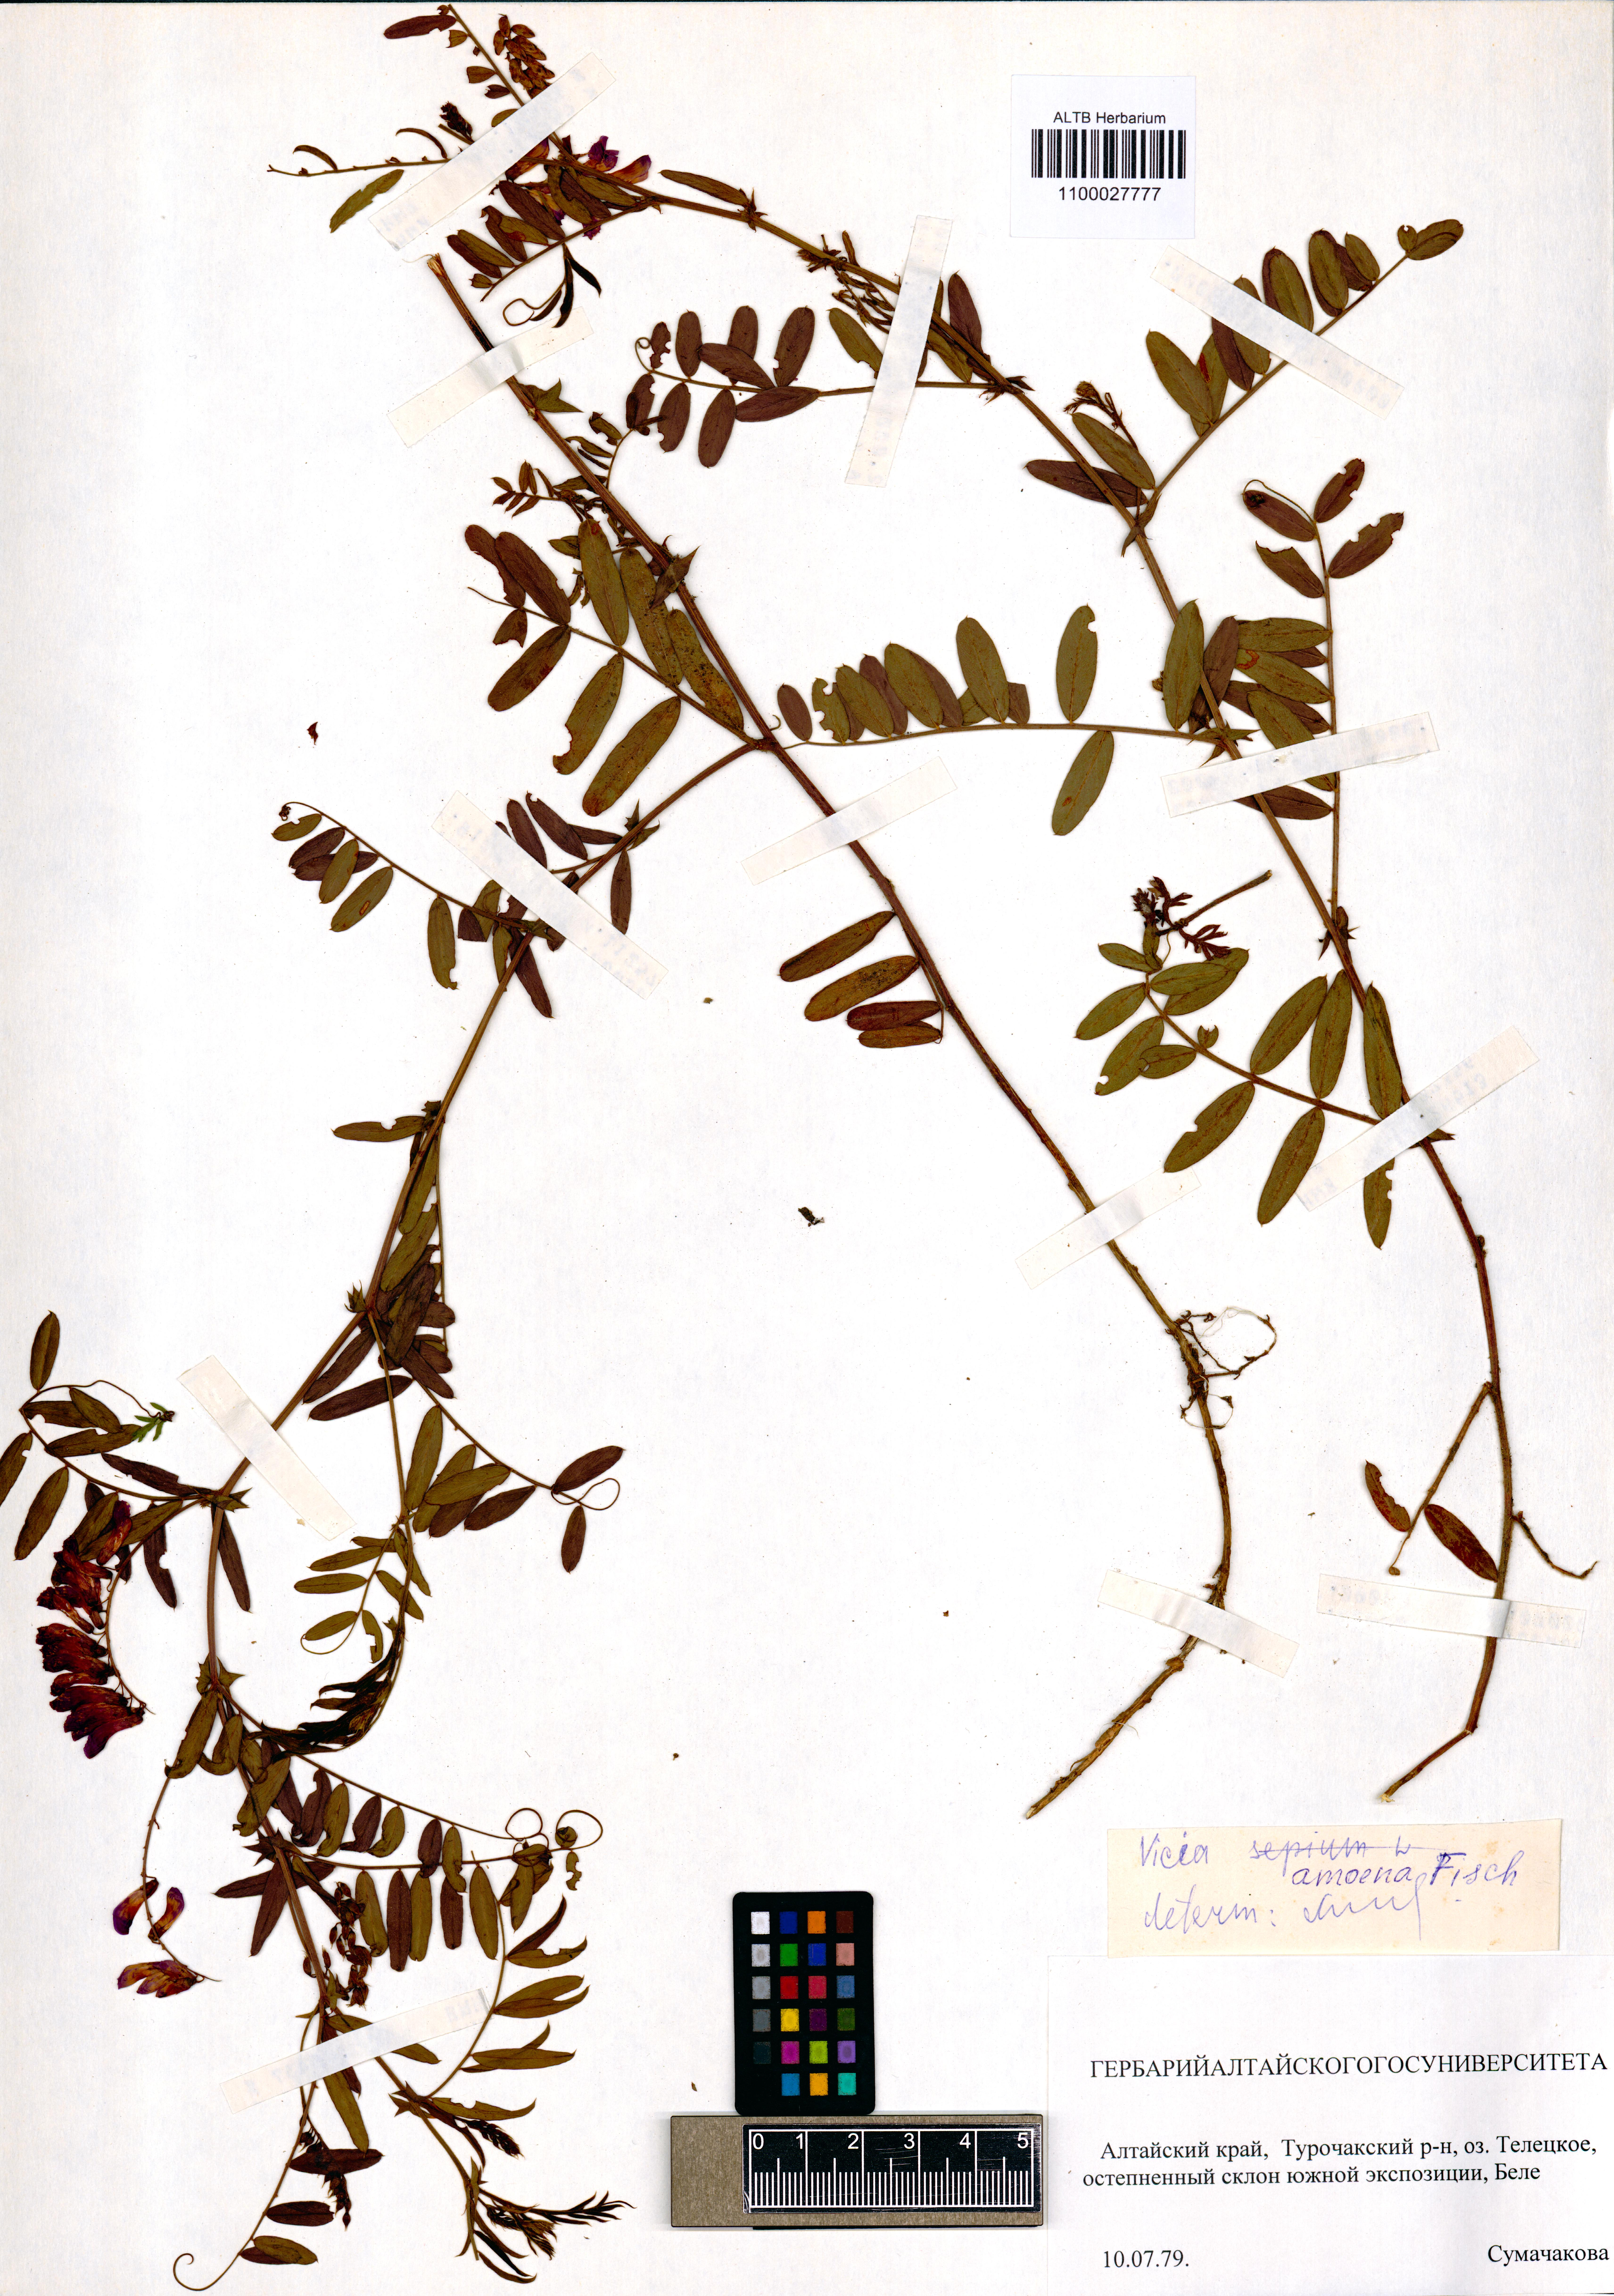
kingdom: Plantae
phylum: Tracheophyta
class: Magnoliopsida
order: Fabales
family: Fabaceae
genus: Vicia
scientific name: Vicia amoena
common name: Cheder ebs
